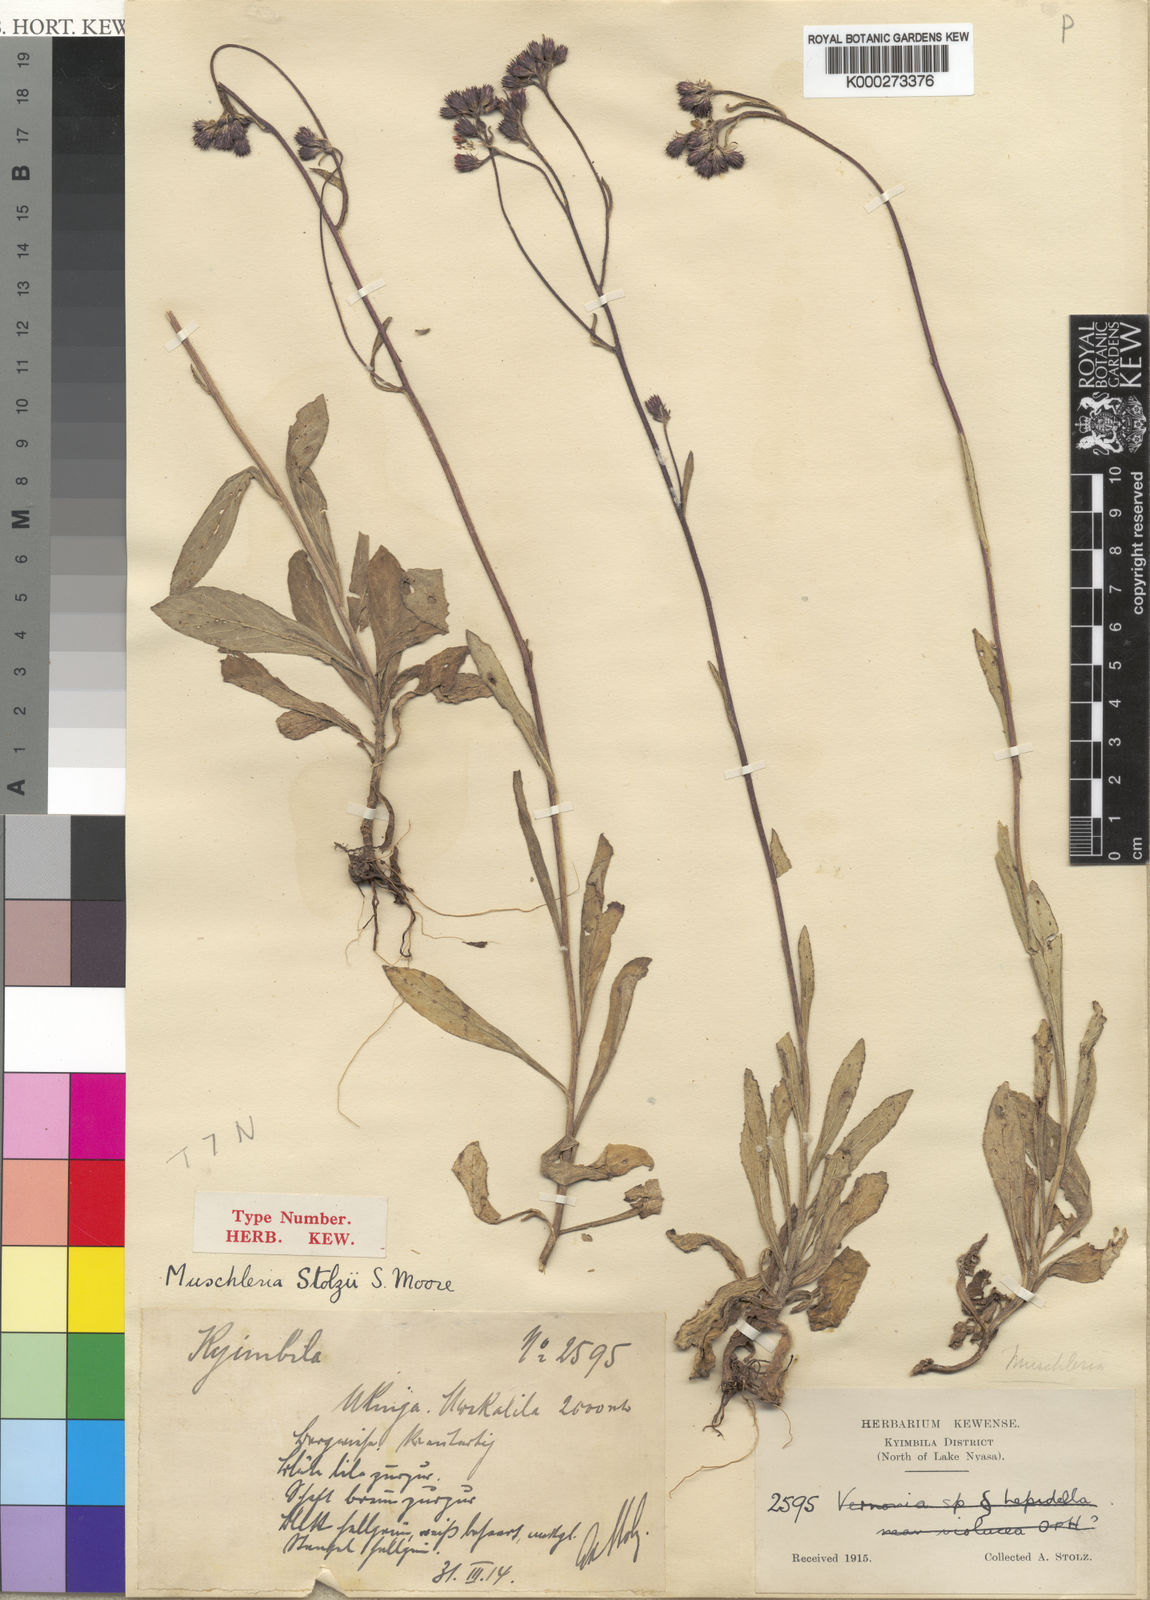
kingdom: Plantae
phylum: Tracheophyta
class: Magnoliopsida
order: Asterales
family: Asteraceae
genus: Brachythrix
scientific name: Brachythrix stolzii
